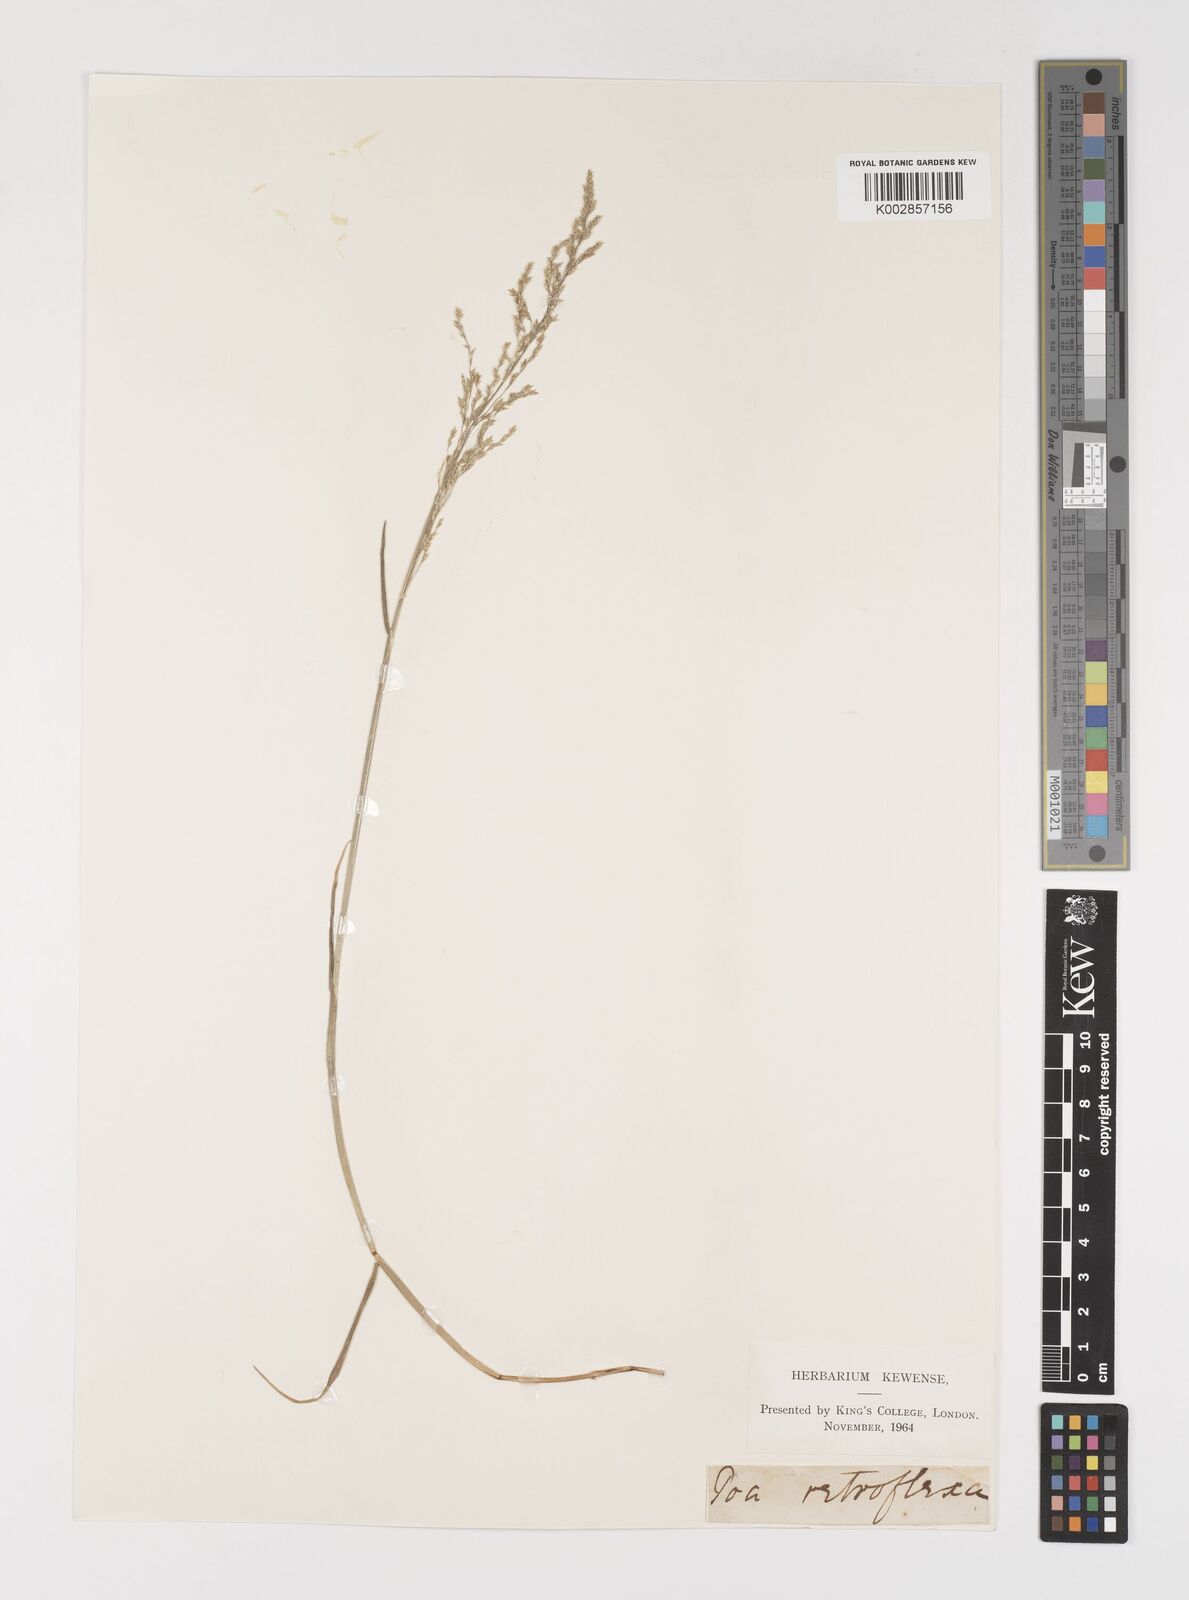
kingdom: Plantae
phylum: Tracheophyta
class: Liliopsida
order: Poales
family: Poaceae
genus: Puccinellia
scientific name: Puccinellia festuciformis
